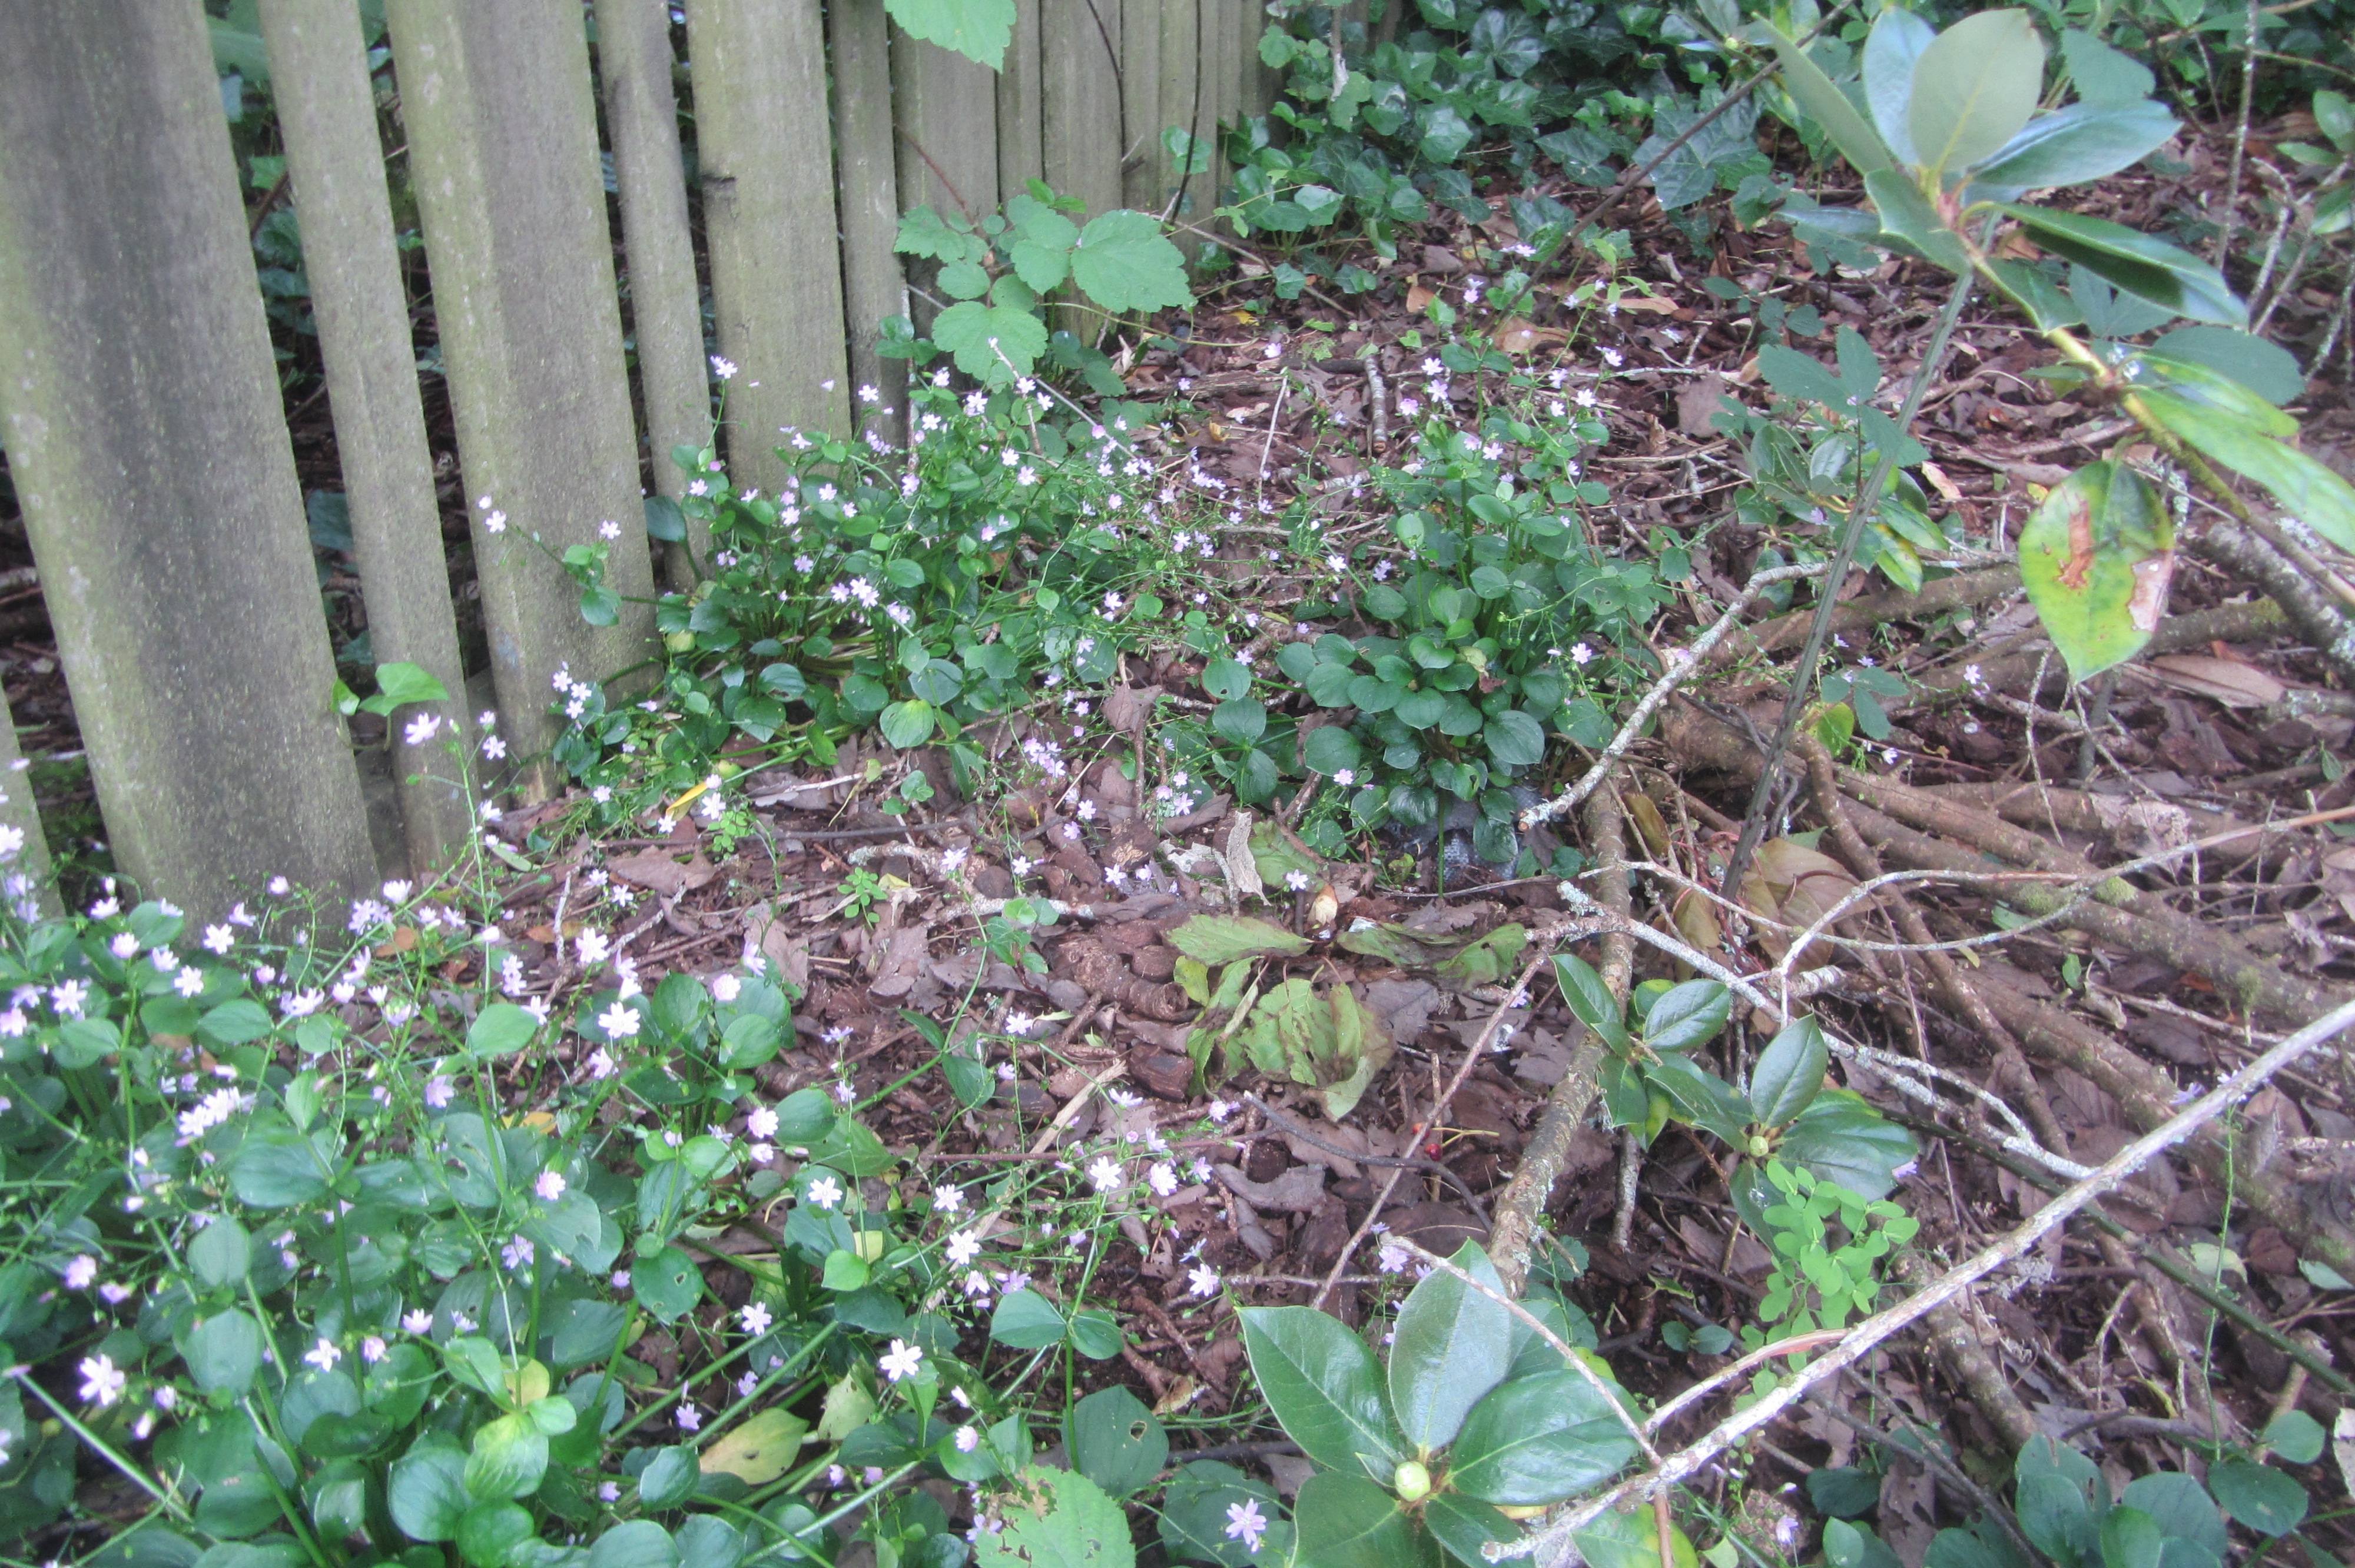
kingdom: Plantae
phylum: Tracheophyta
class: Magnoliopsida
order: Caryophyllales
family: Montiaceae
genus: Claytonia
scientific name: Claytonia sibirica
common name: Pink purslane
